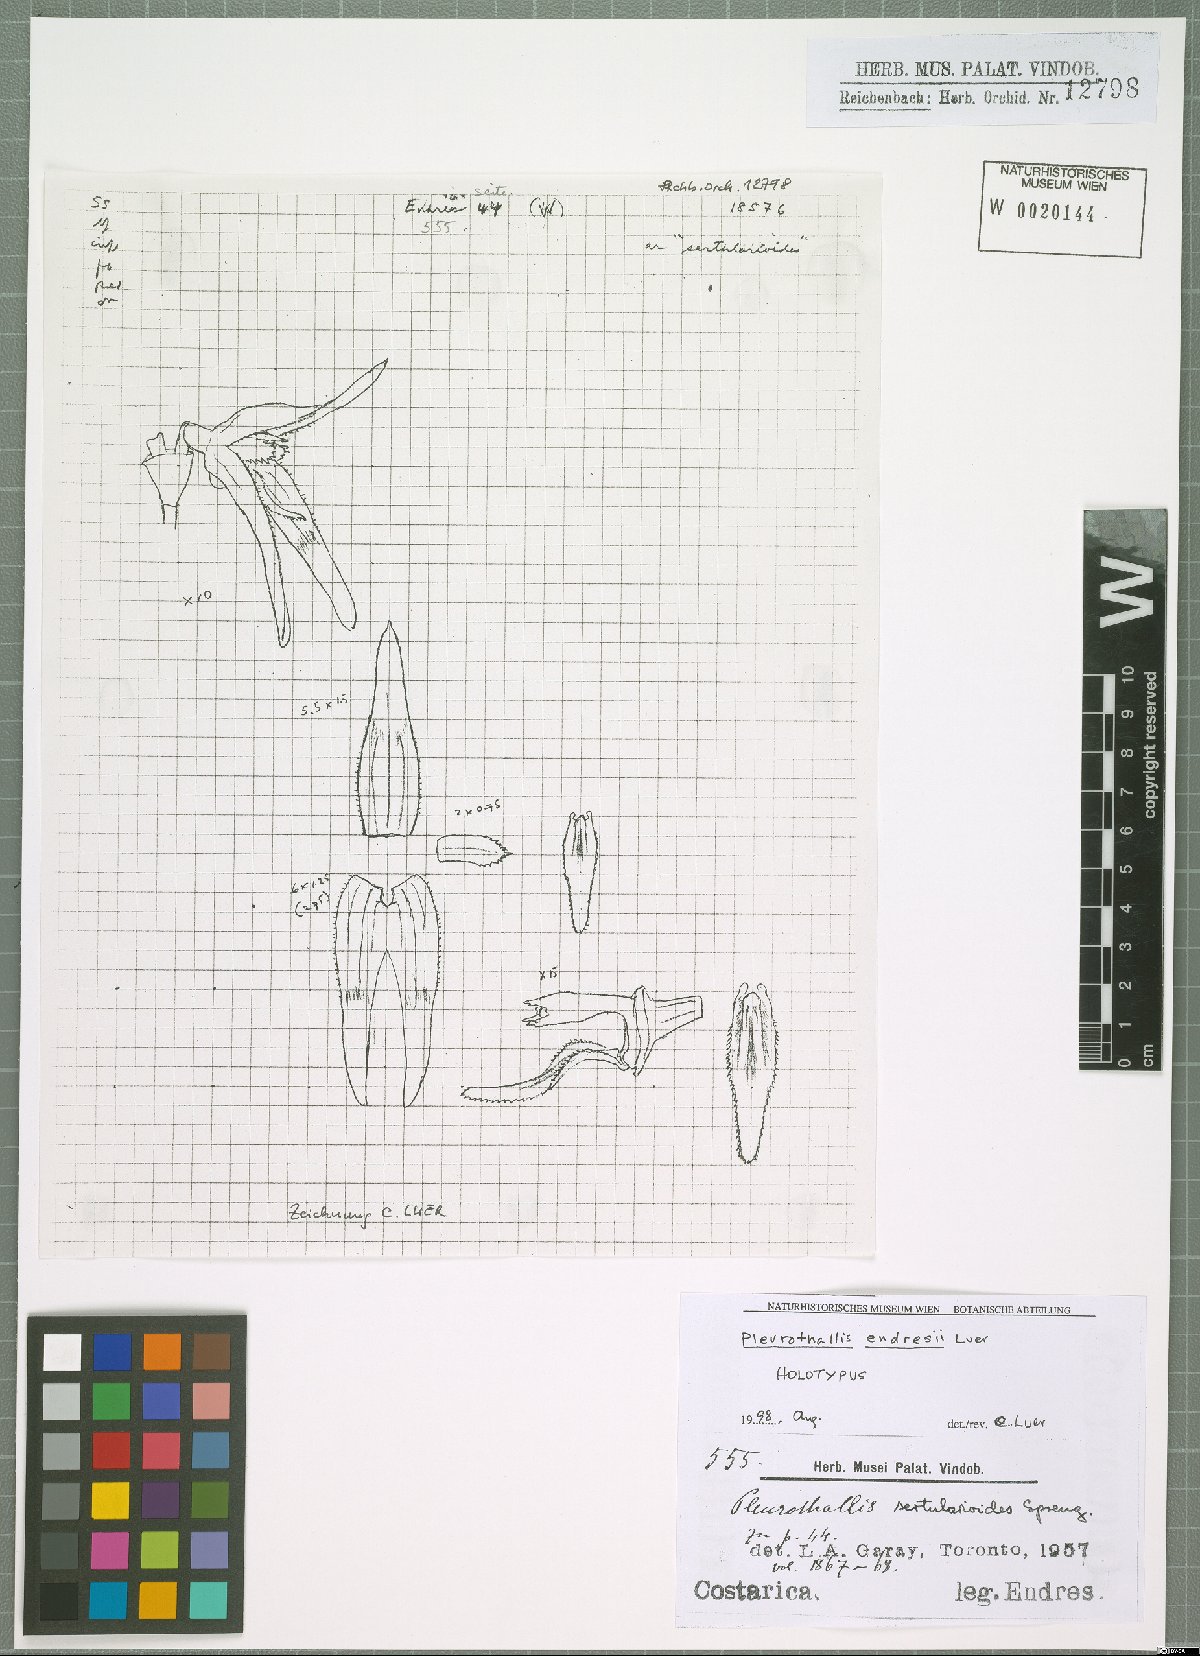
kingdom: Plantae
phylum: Tracheophyta
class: Liliopsida
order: Asparagales
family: Orchidaceae
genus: Anathallis
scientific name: Anathallis endresii
